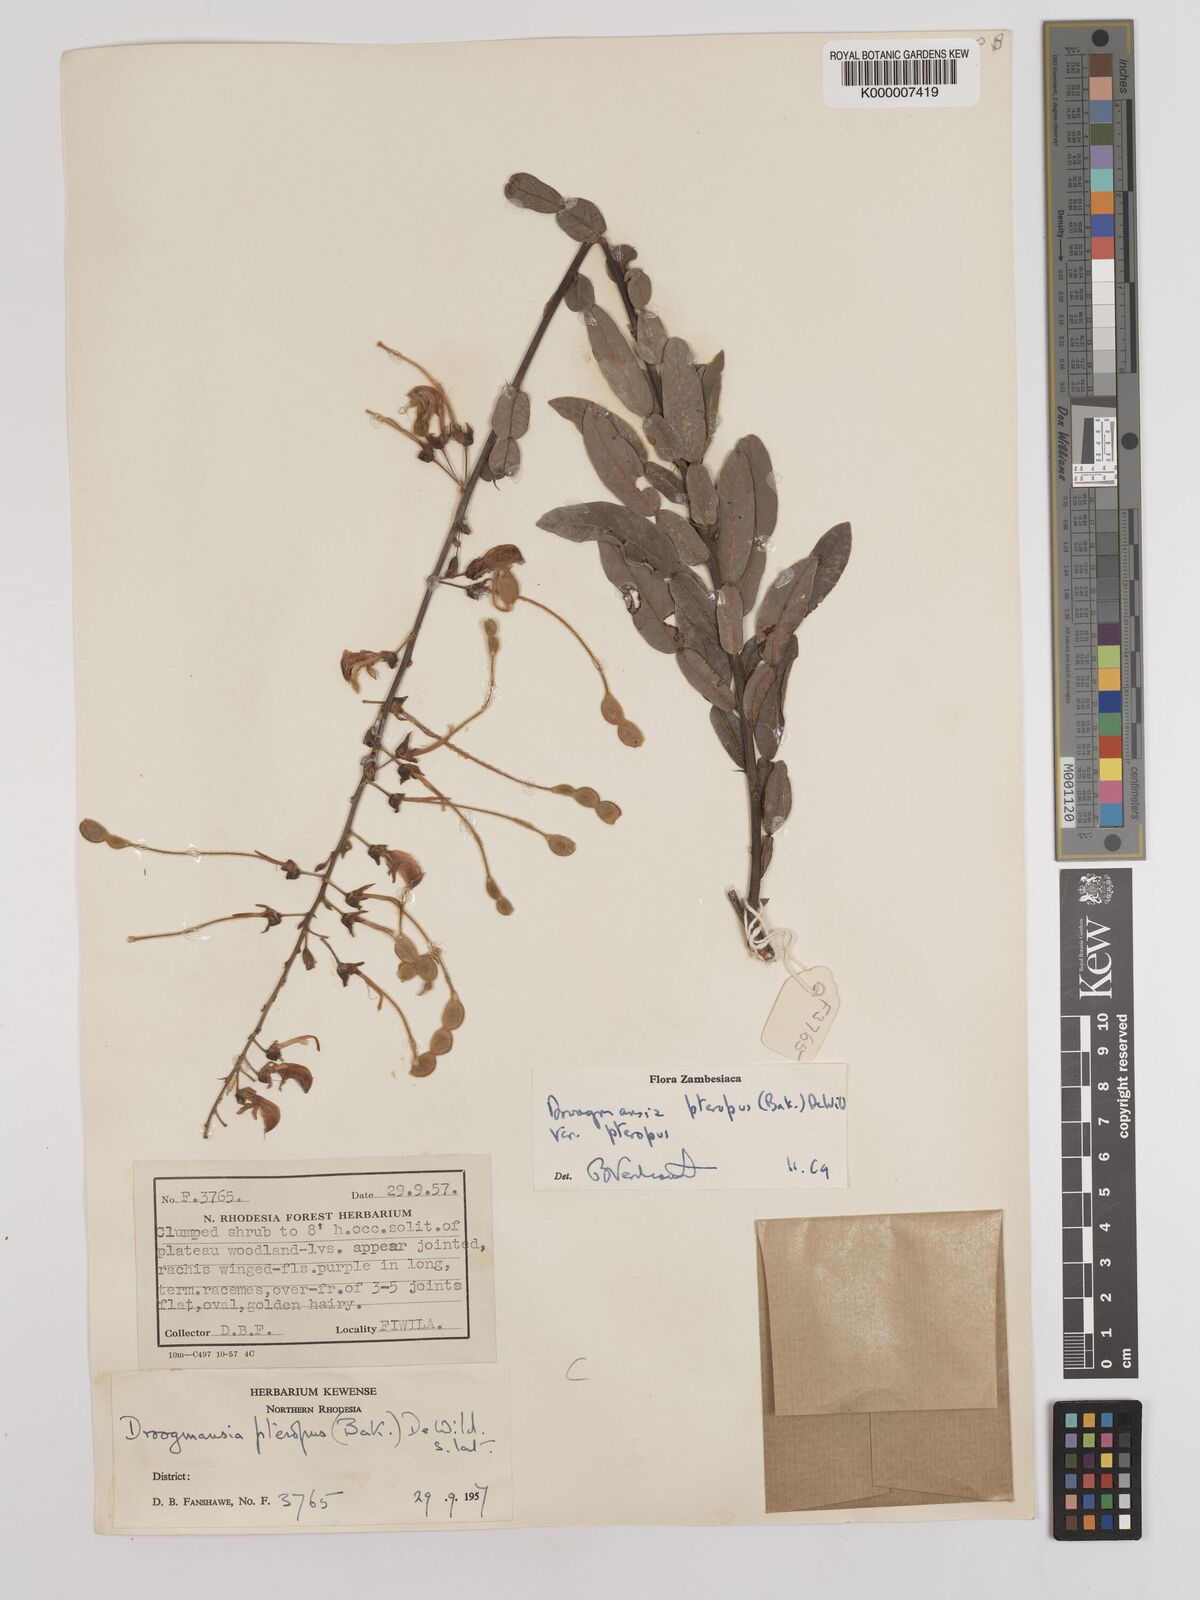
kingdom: Plantae
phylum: Tracheophyta
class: Magnoliopsida
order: Fabales
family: Fabaceae
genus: Droogmansia
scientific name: Droogmansia pteropus
